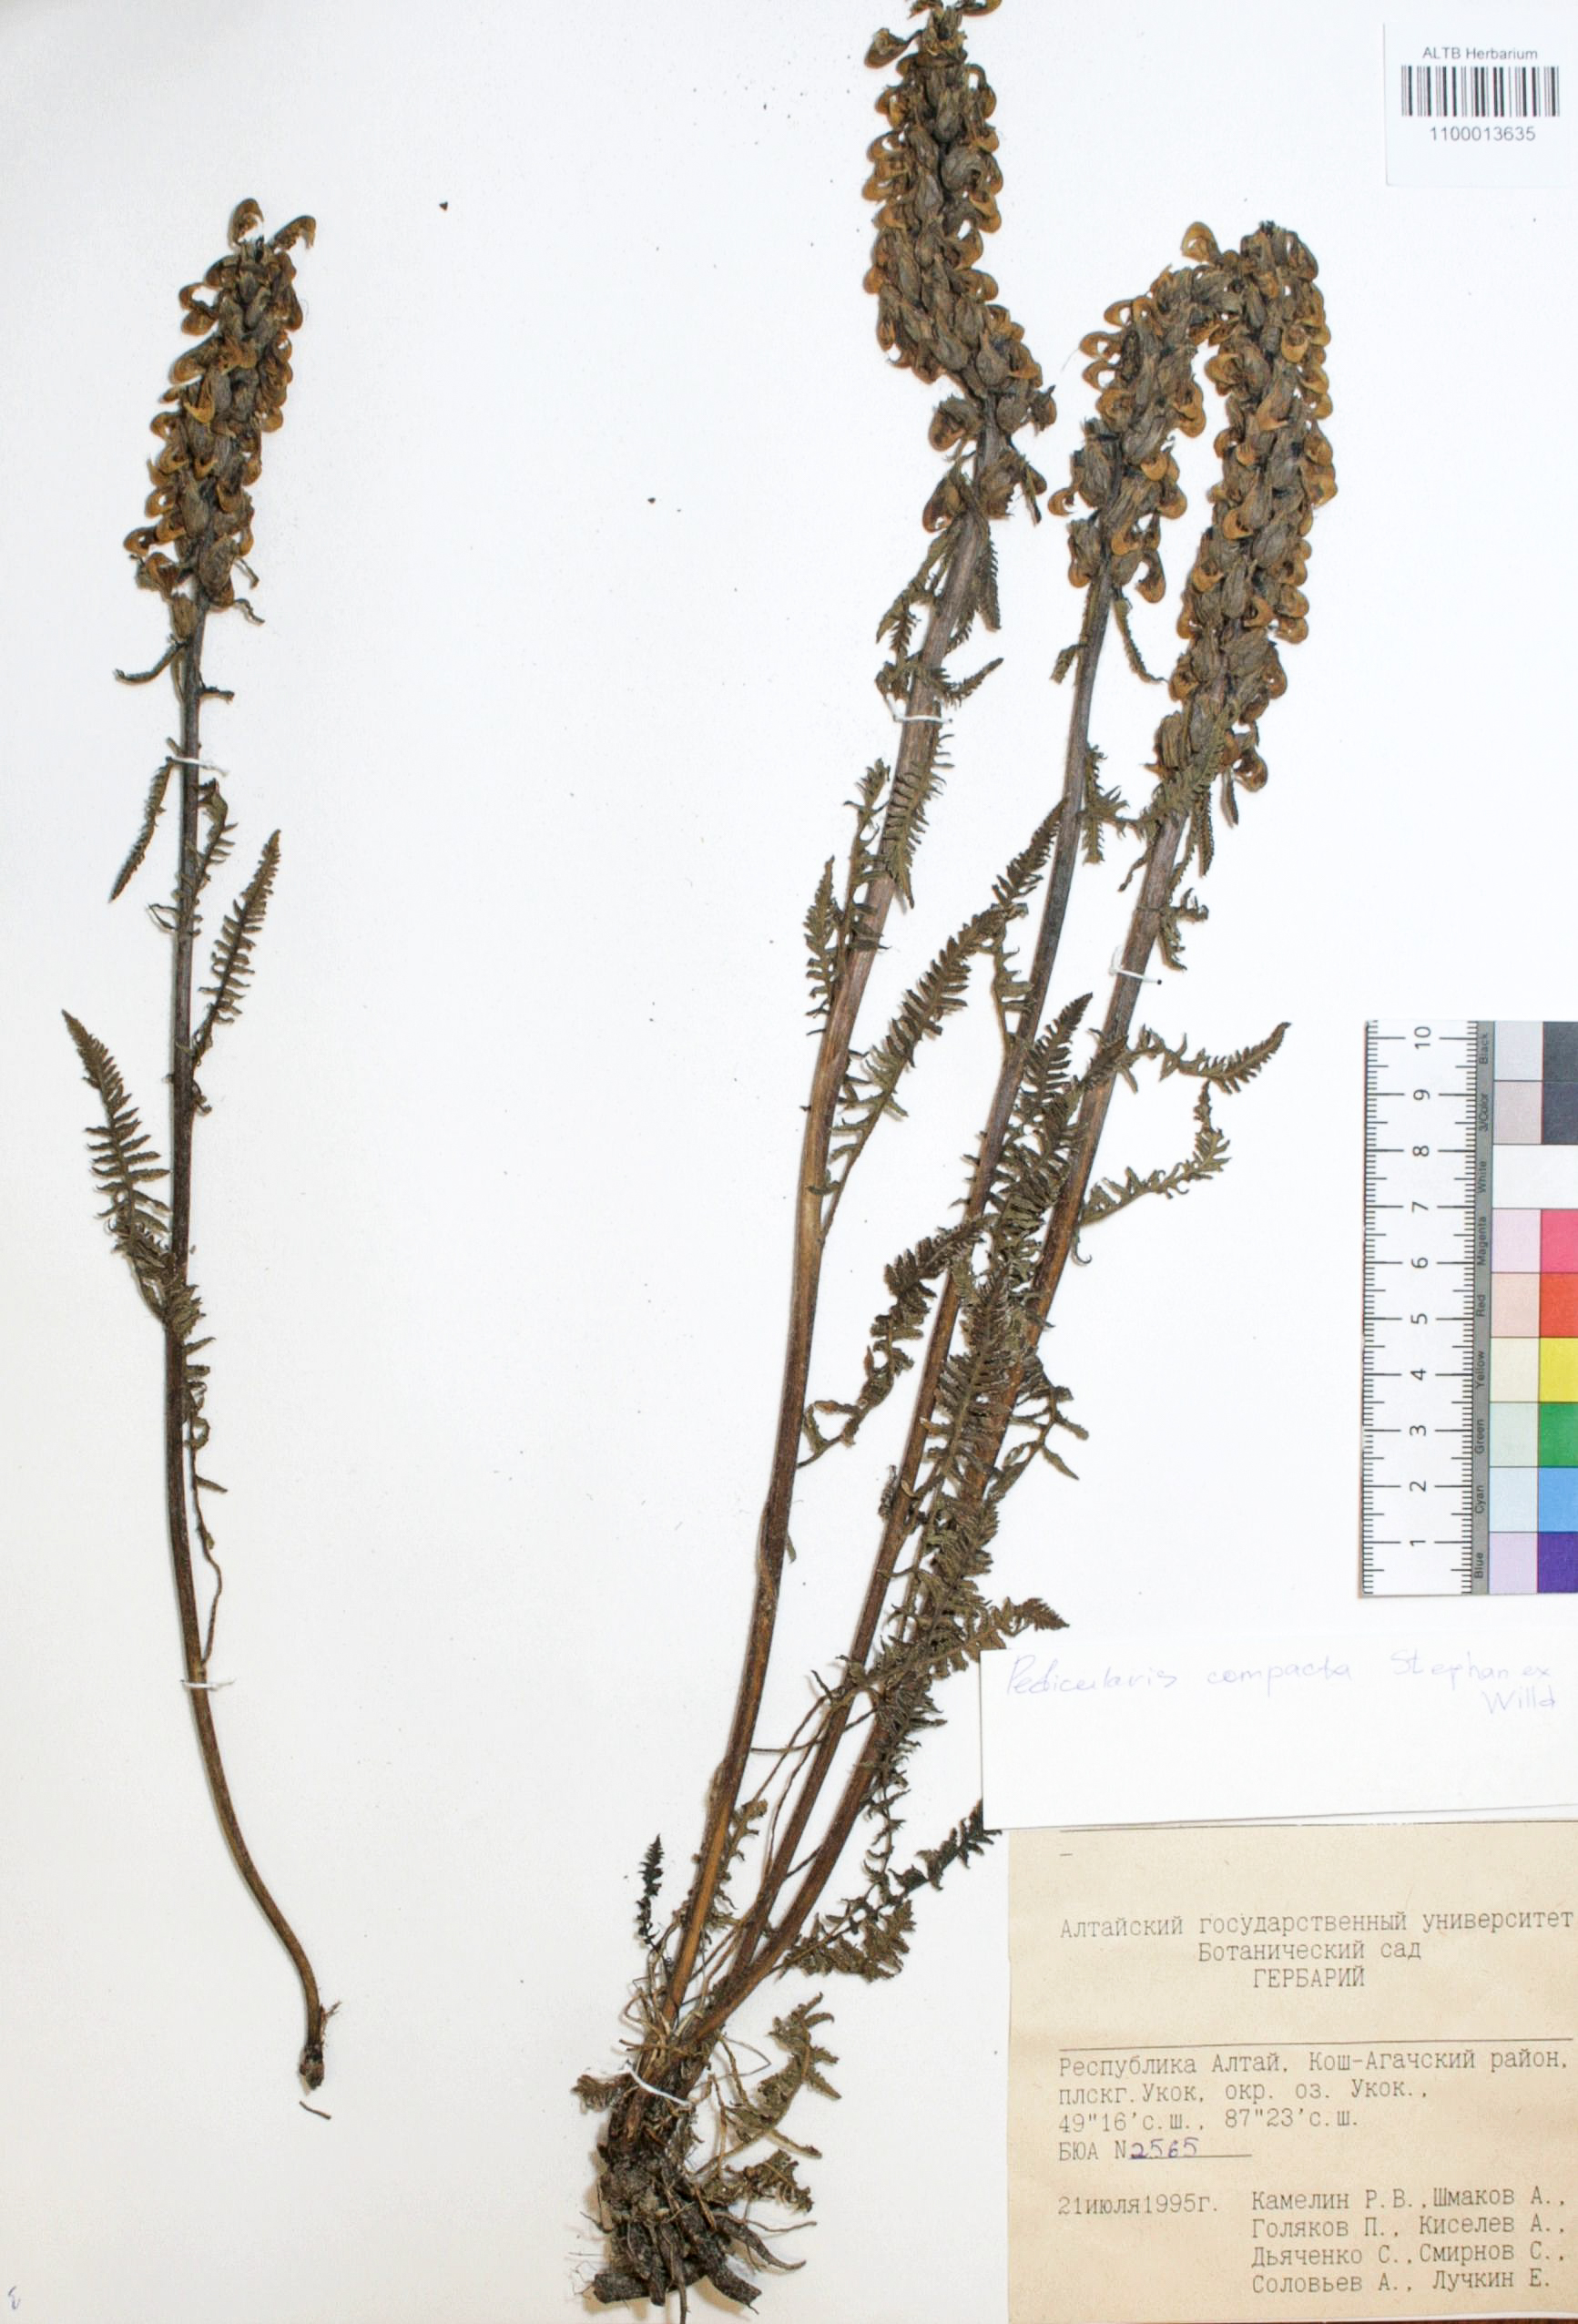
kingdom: Plantae
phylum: Tracheophyta
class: Magnoliopsida
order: Lamiales
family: Orobanchaceae
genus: Pedicularis
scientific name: Pedicularis compacta
